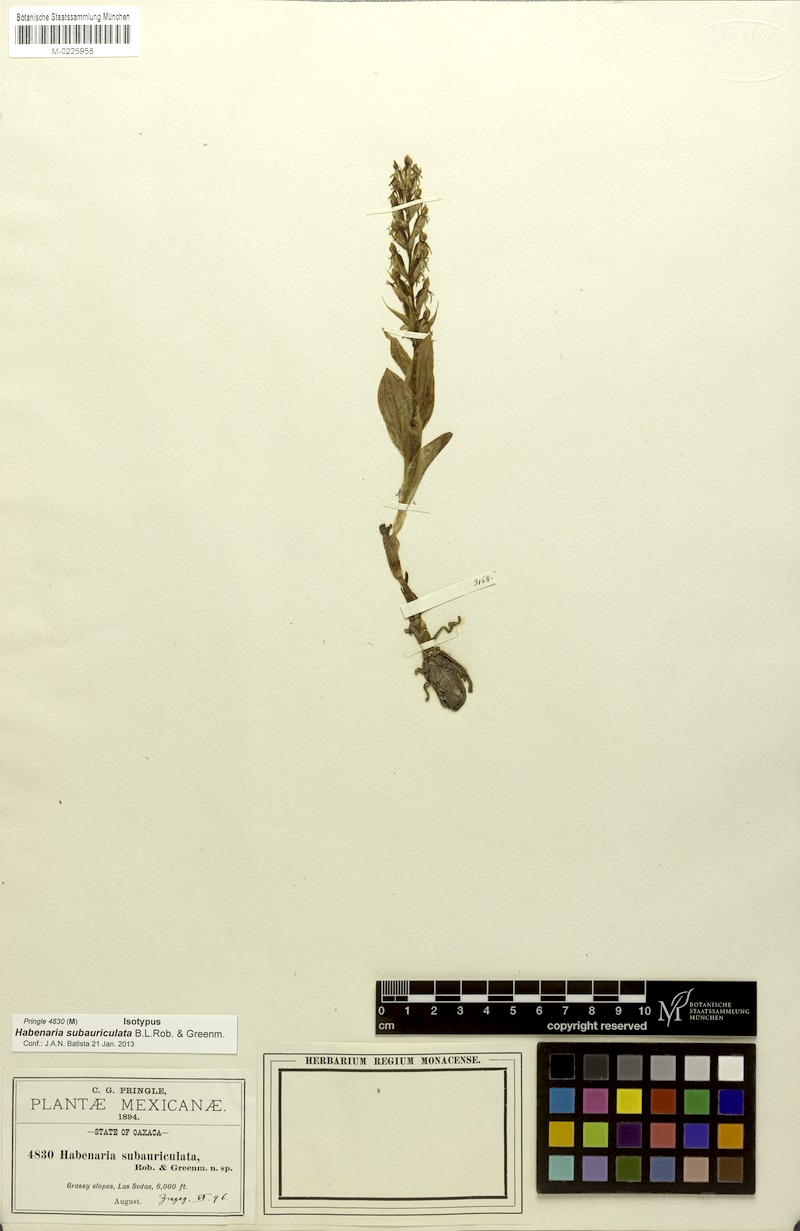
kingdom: Plantae
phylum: Tracheophyta
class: Liliopsida
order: Asparagales
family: Orchidaceae
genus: Habenaria
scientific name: Habenaria subauriculata
